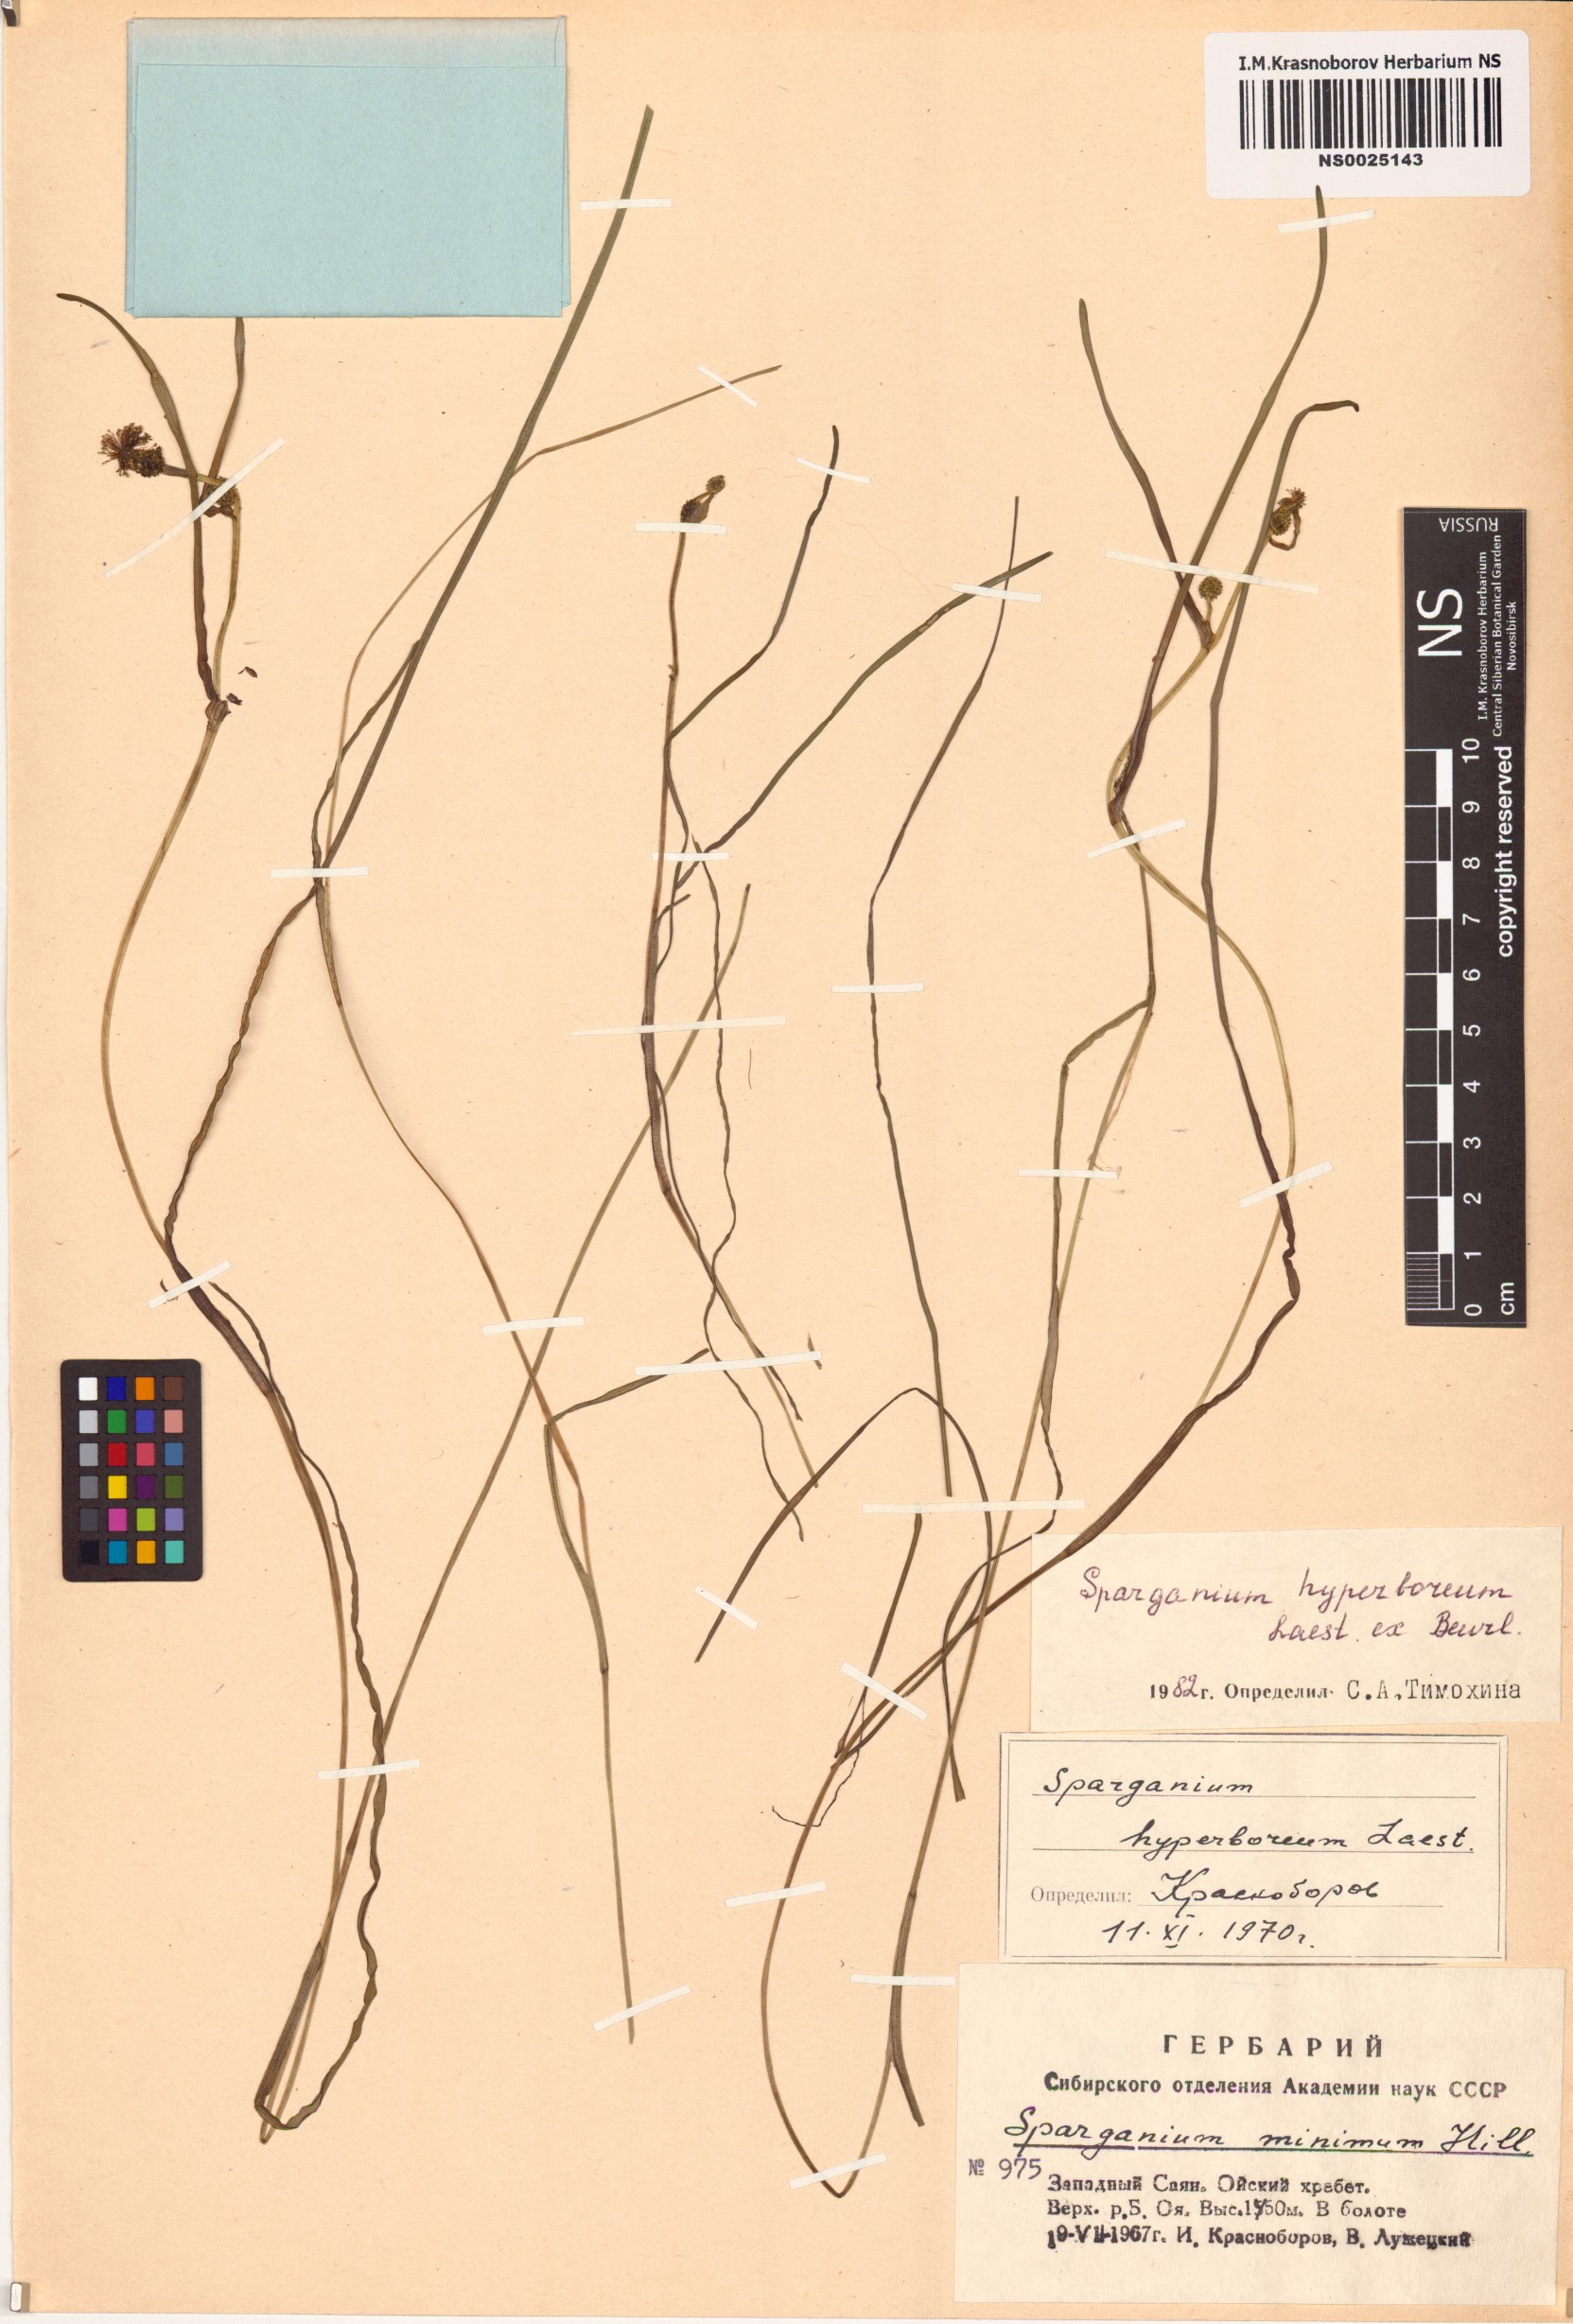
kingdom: Plantae
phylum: Tracheophyta
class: Liliopsida
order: Poales
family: Typhaceae
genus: Sparganium
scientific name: Sparganium hyperboreum
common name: Arctic burreed
